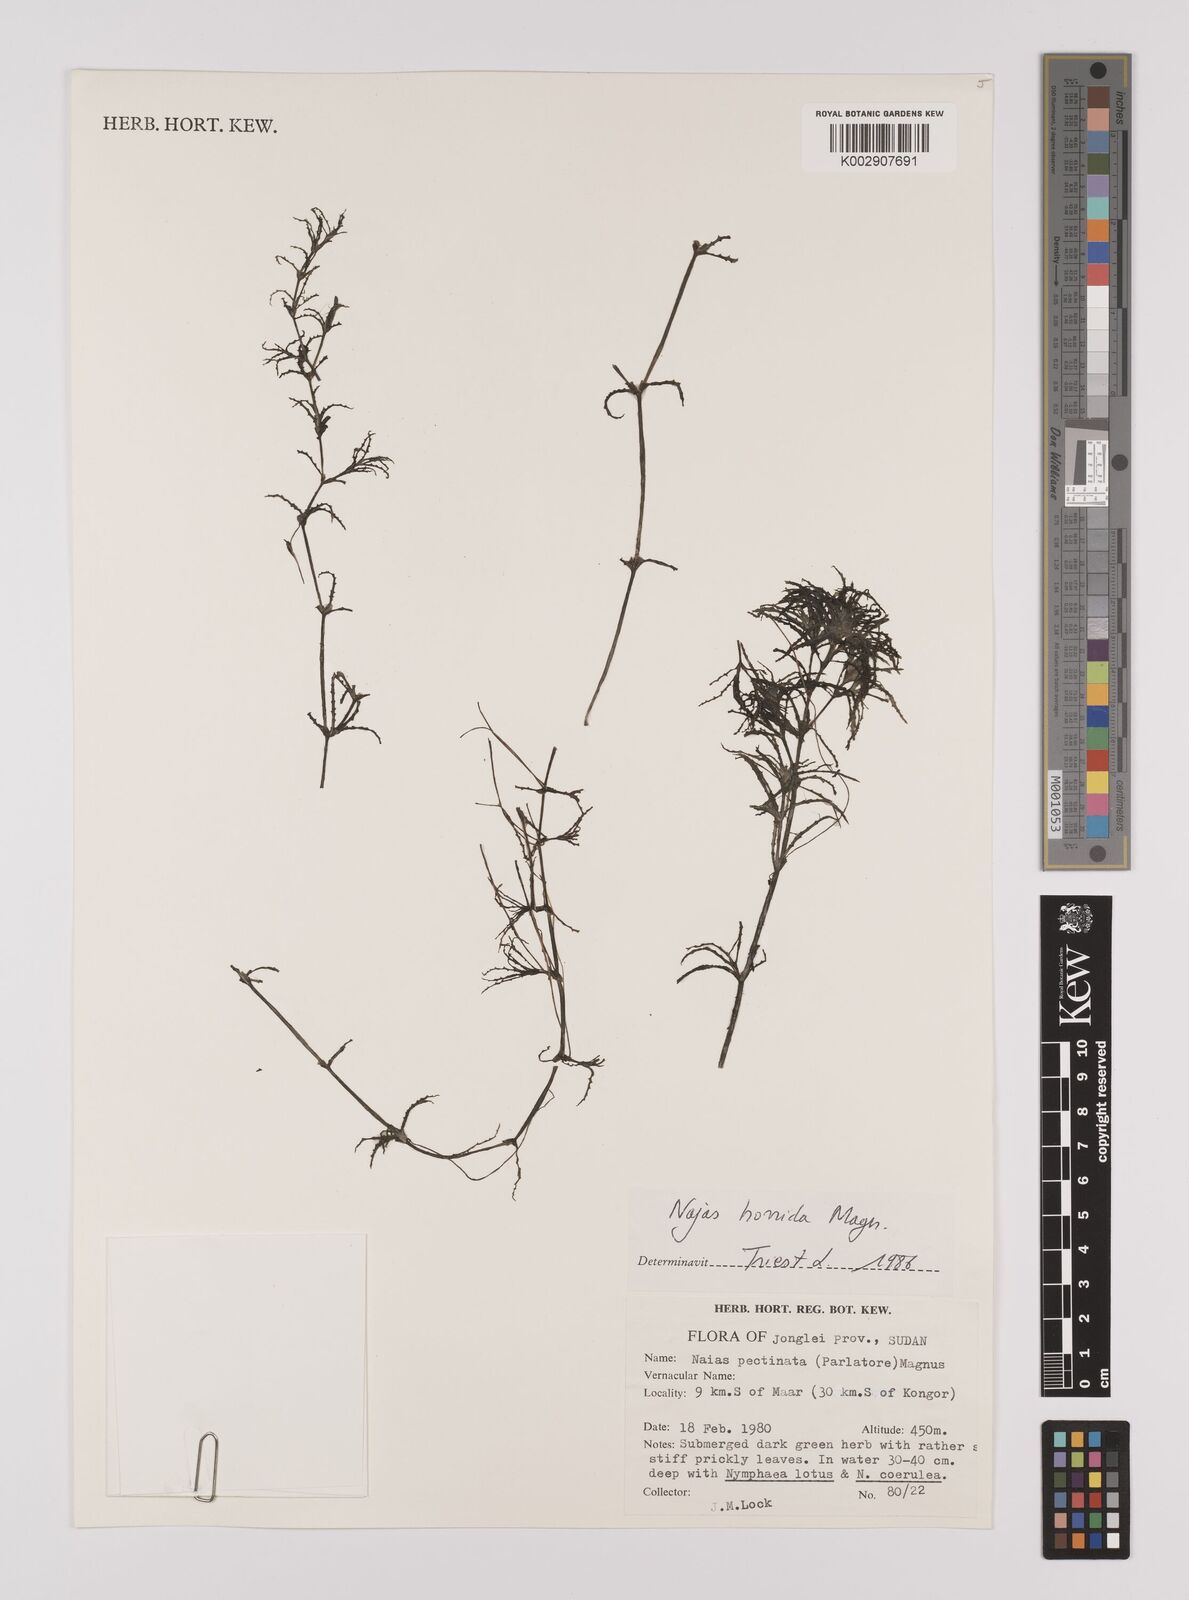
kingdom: Plantae
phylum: Tracheophyta
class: Liliopsida
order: Alismatales
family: Hydrocharitaceae
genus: Najas
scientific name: Najas horrida
